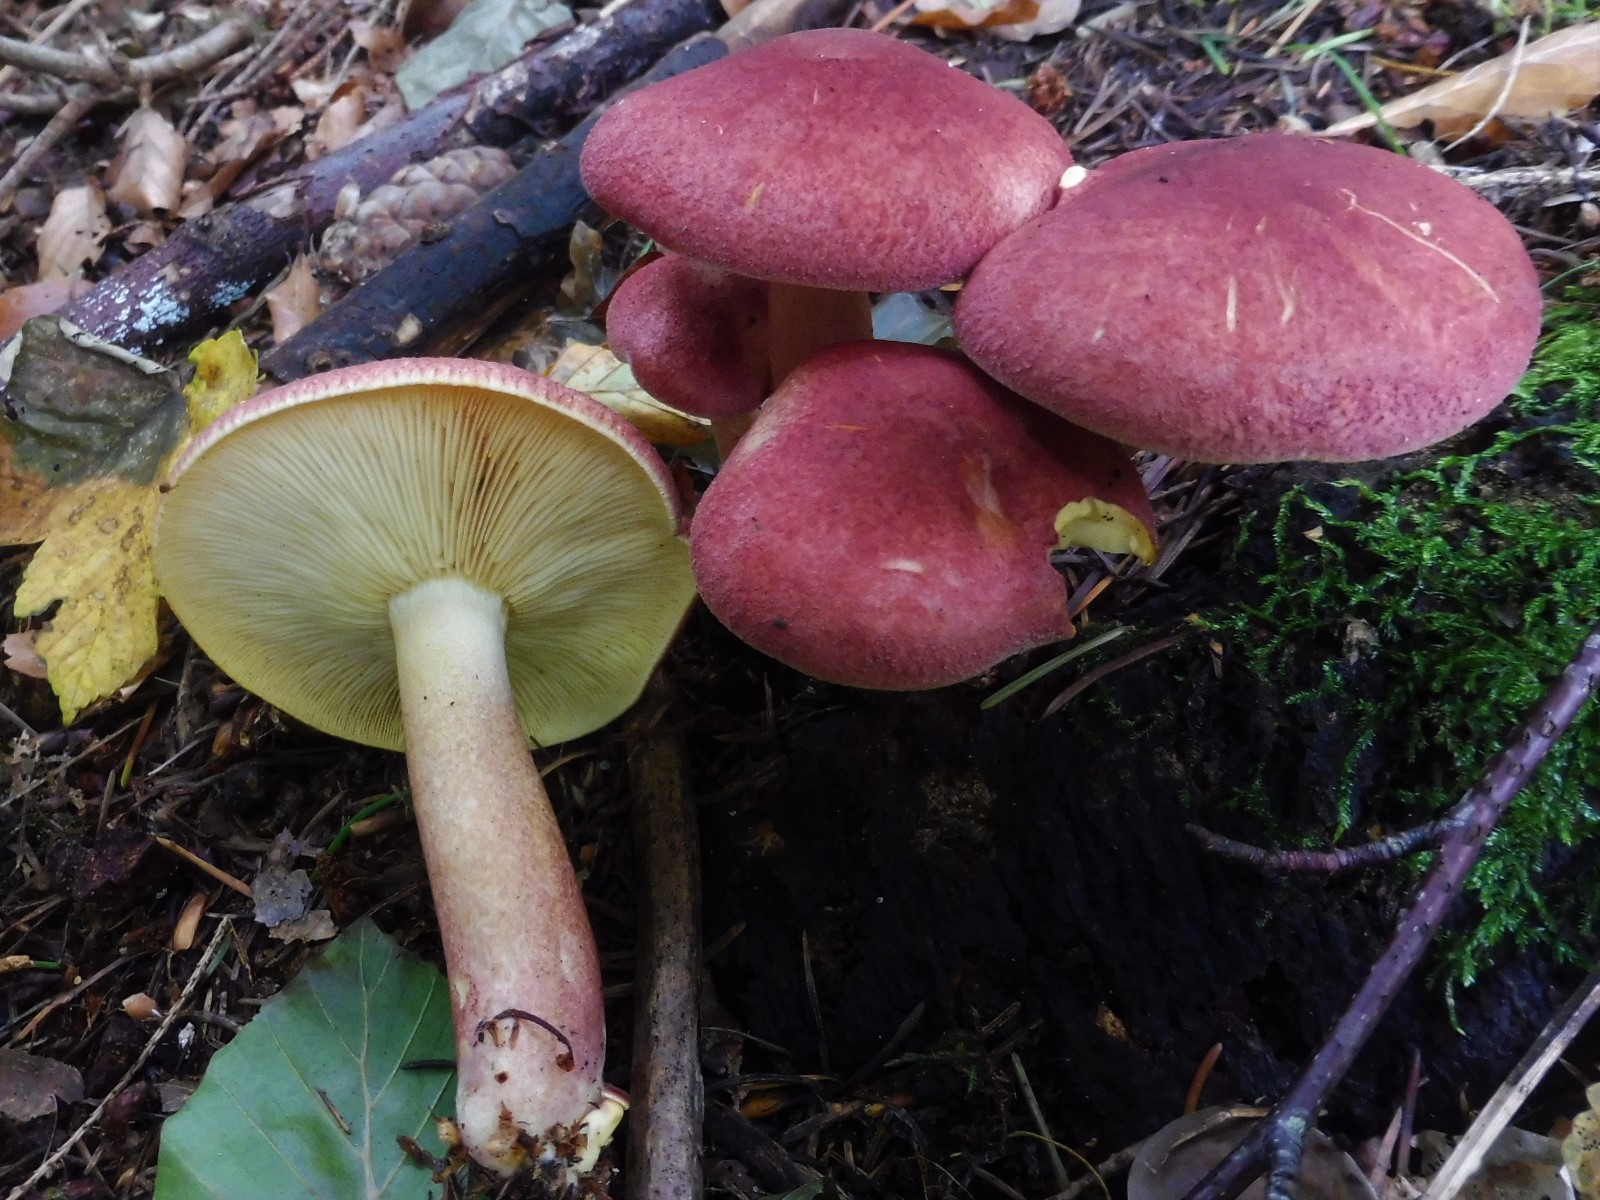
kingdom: Fungi
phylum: Basidiomycota
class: Agaricomycetes
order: Agaricales
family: Tricholomataceae
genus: Tricholomopsis
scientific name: Tricholomopsis rutilans
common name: purpur-væbnerhat
